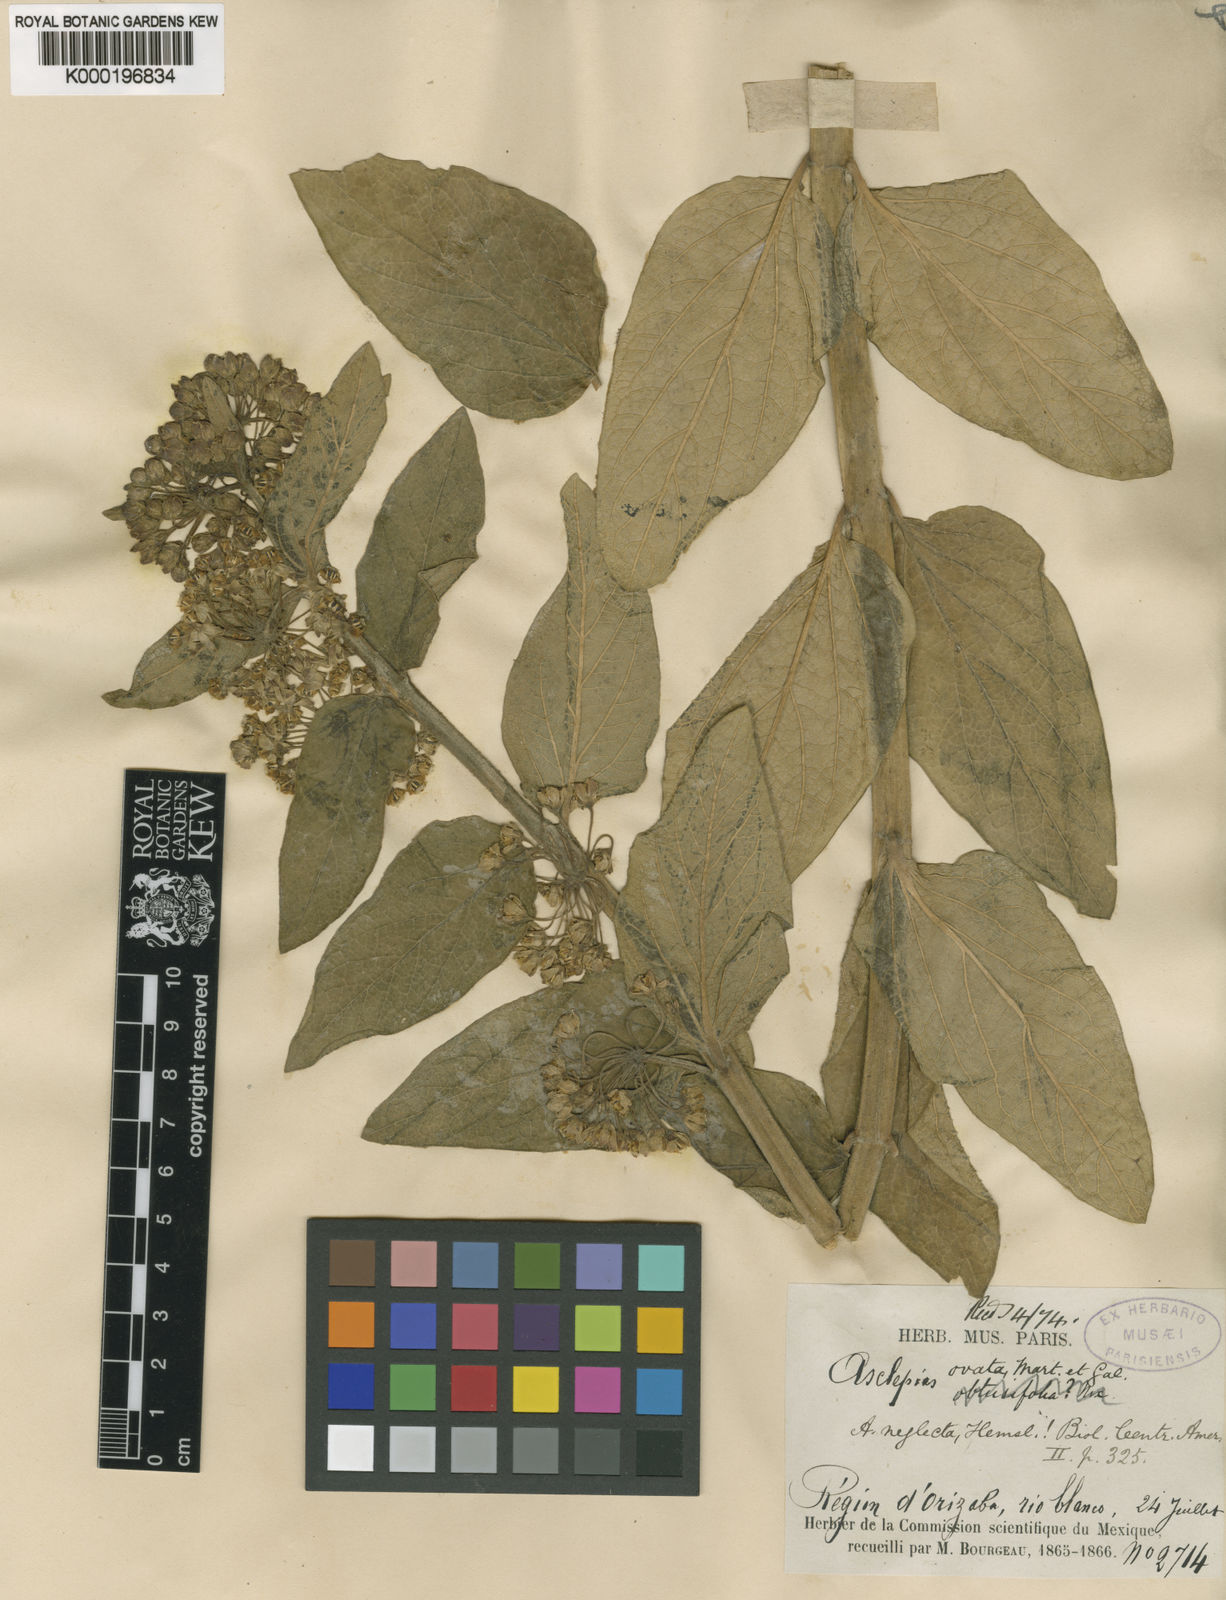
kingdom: Plantae
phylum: Tracheophyta
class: Magnoliopsida
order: Gentianales
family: Apocynaceae
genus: Asclepias
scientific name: Asclepias ovata
